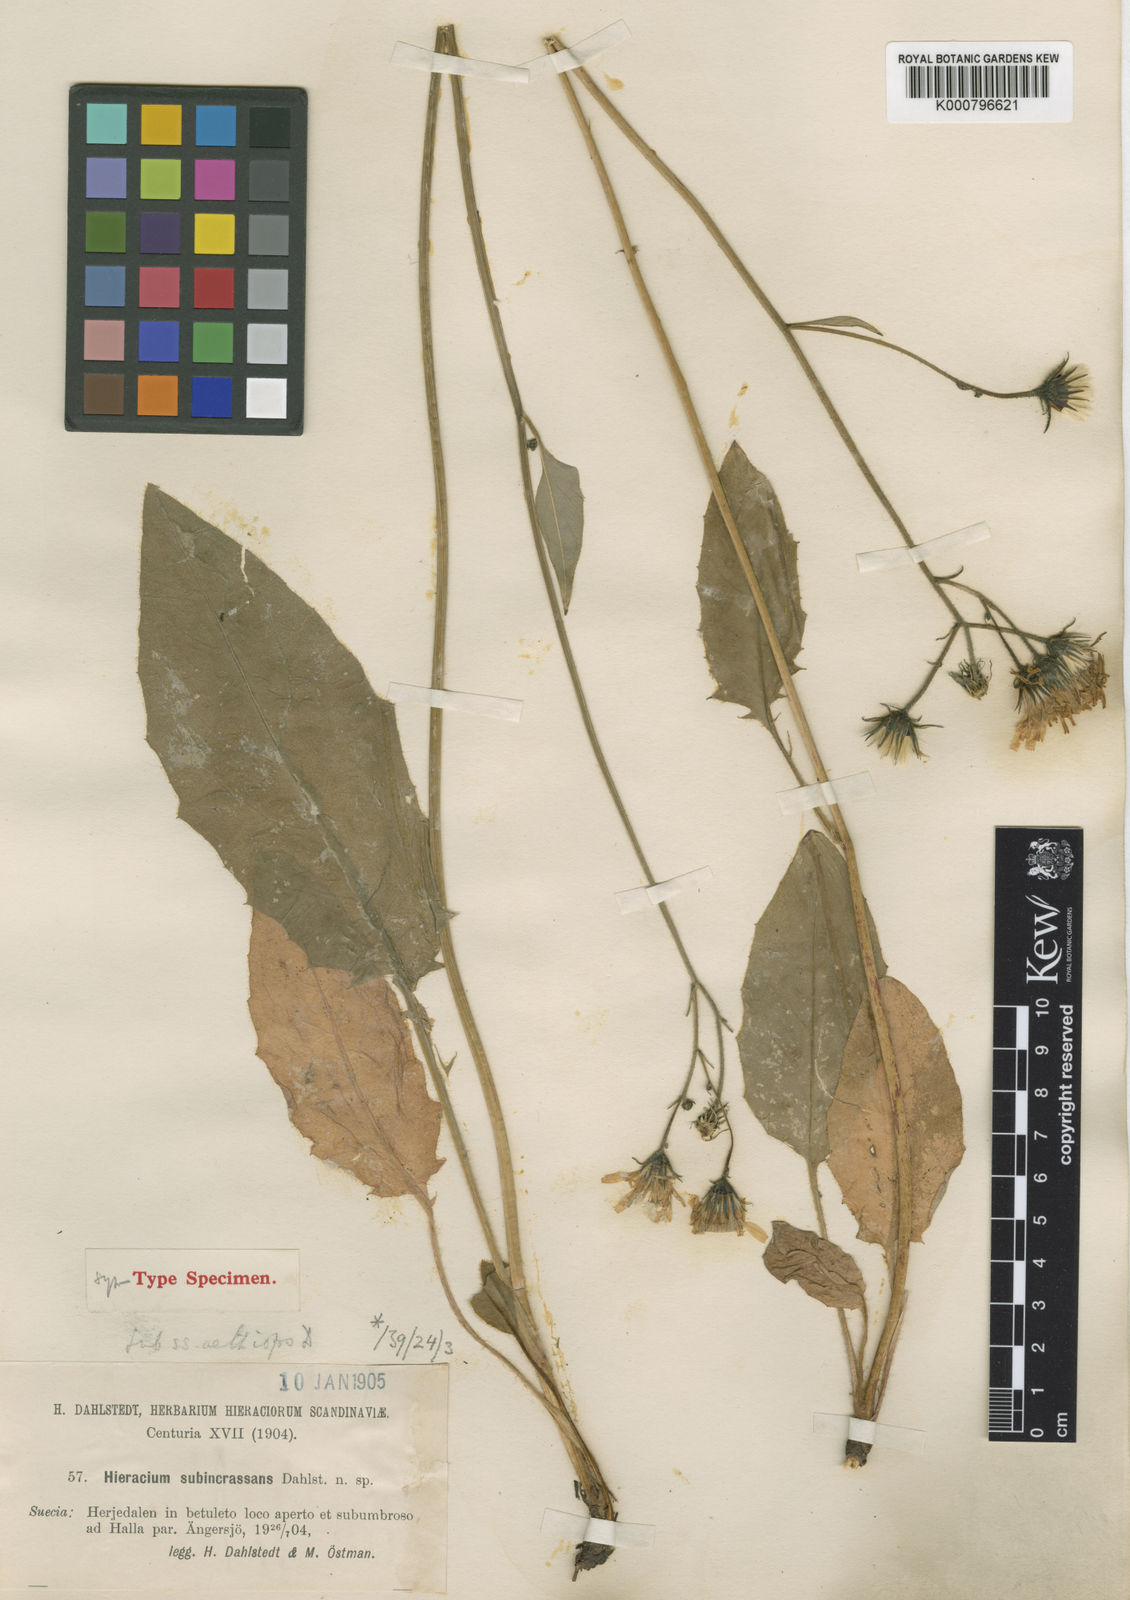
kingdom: Plantae
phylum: Tracheophyta
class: Magnoliopsida
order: Asterales
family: Asteraceae
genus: Hieracium
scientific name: Hieracium murorum
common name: Wall hawkweed
